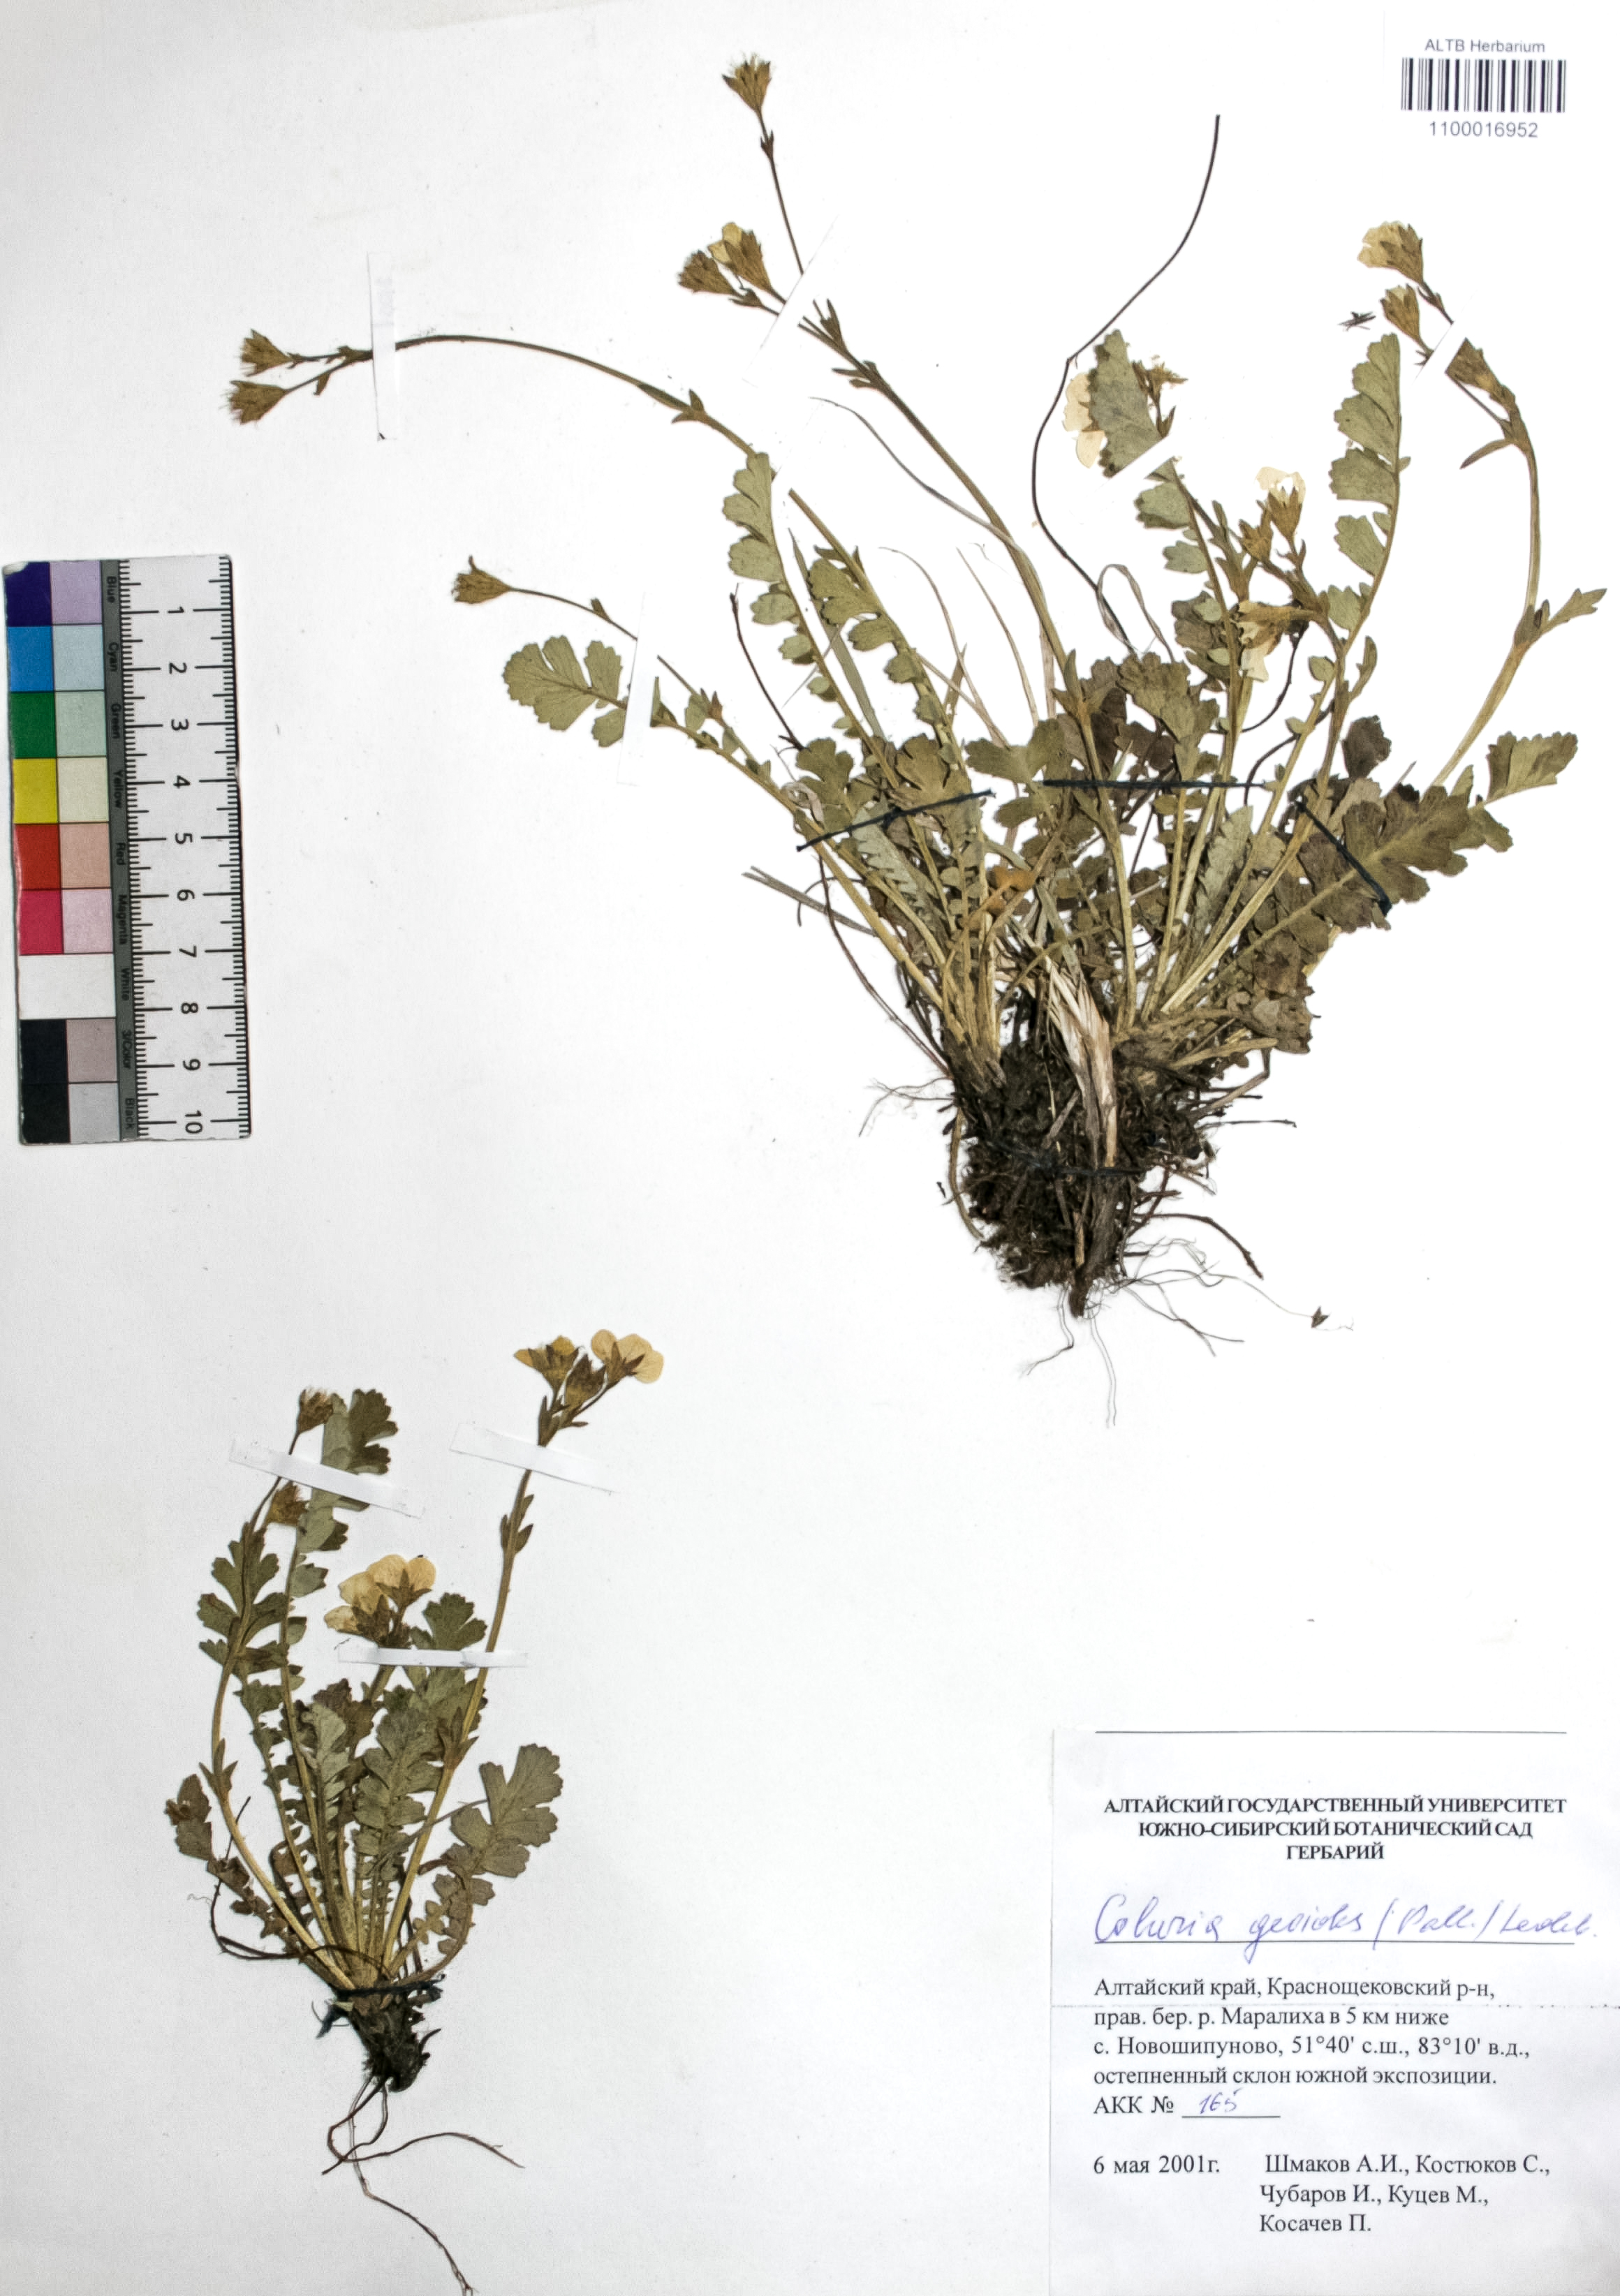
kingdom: Plantae
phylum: Tracheophyta
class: Magnoliopsida
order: Rosales
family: Rosaceae
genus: Geum
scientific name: Geum geoides
